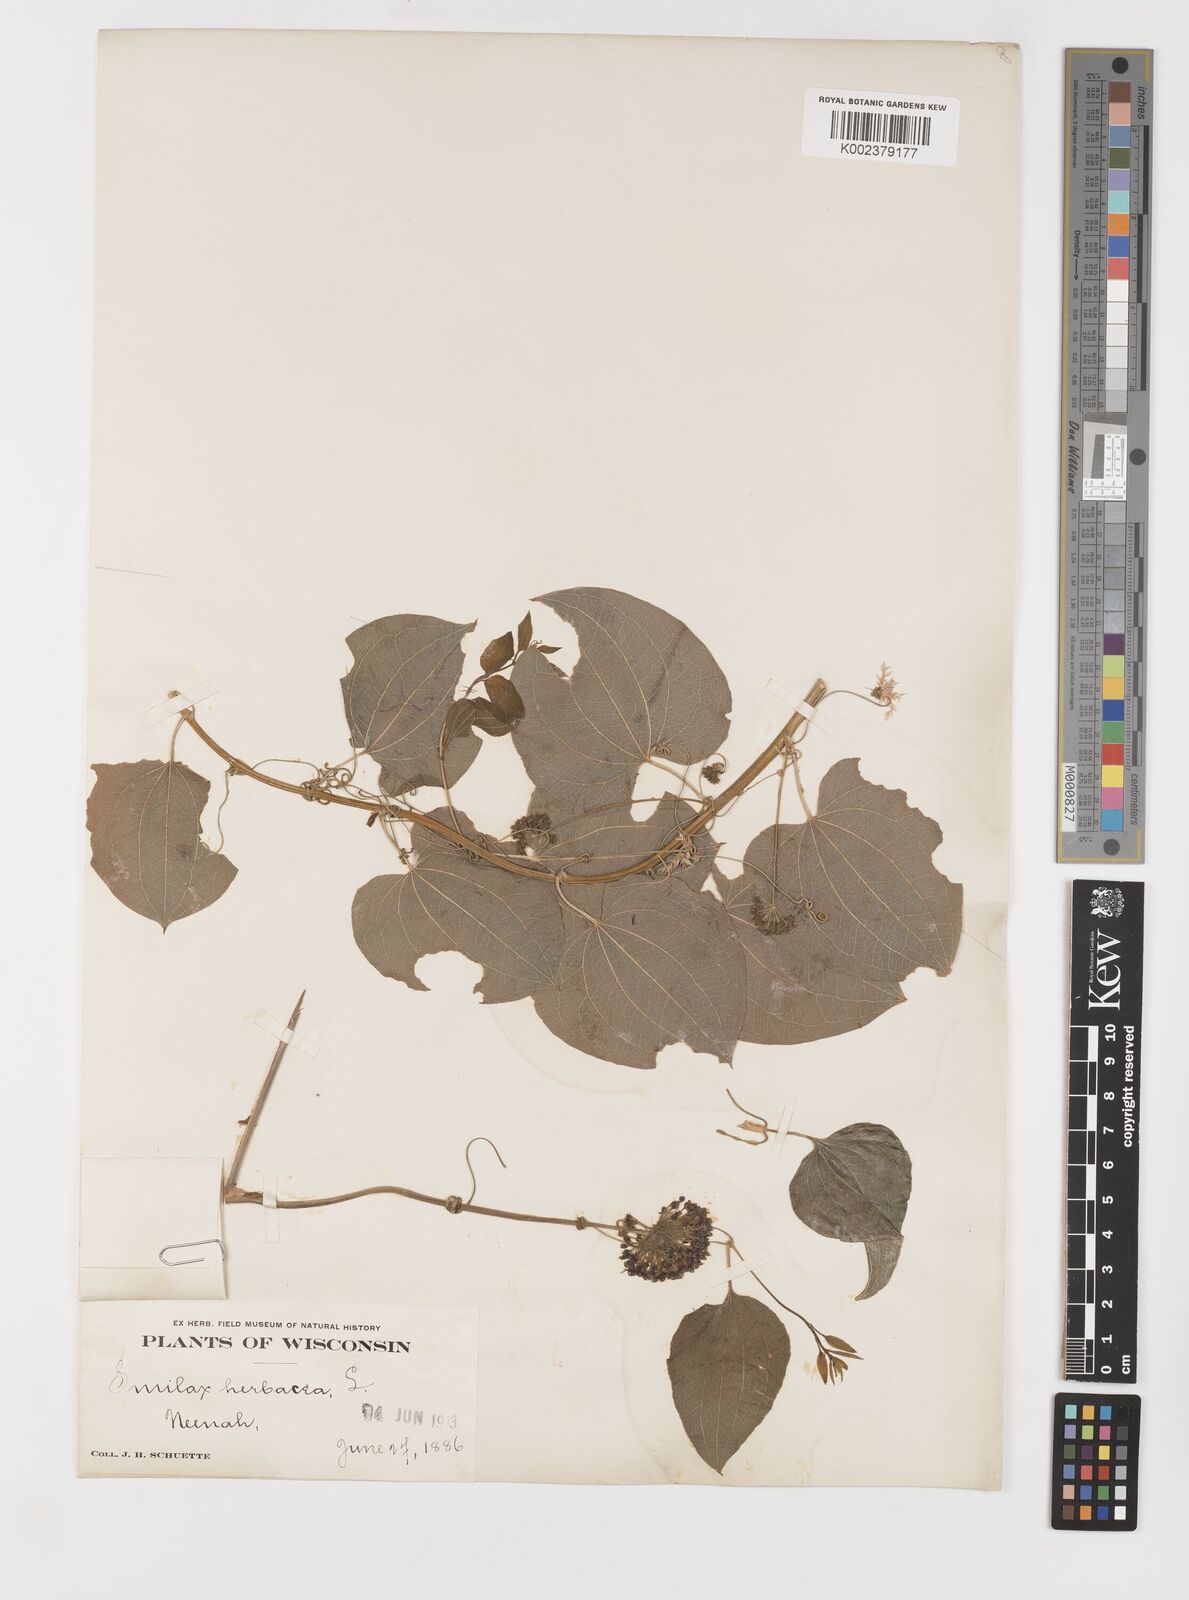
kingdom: Plantae
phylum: Tracheophyta
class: Liliopsida
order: Liliales
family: Smilacaceae
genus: Smilax
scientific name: Smilax herbacea
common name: Jacob's-ladder
